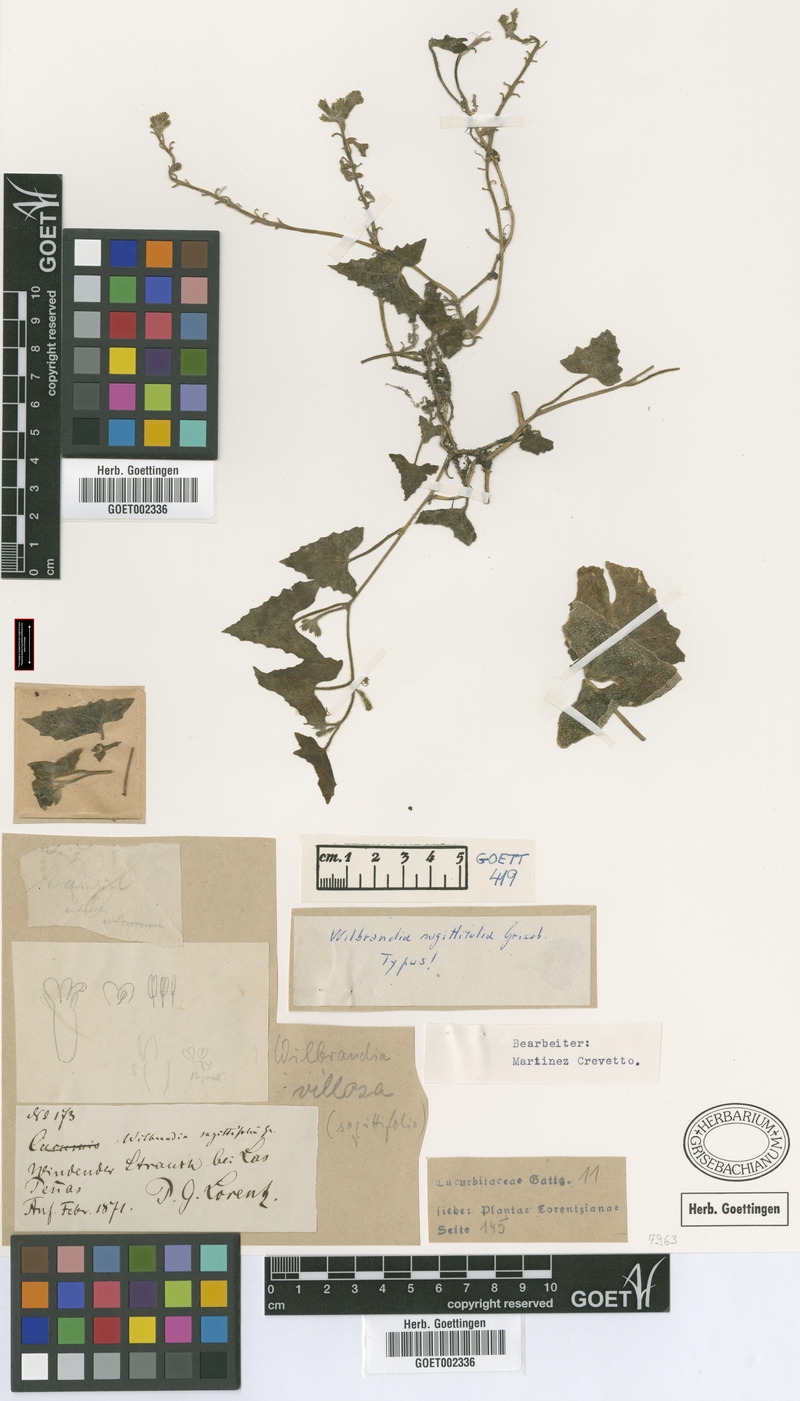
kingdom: Plantae
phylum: Tracheophyta
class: Magnoliopsida
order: Cucurbitales
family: Cucurbitaceae
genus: Apodanthera
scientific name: Apodanthera sagittifolia
